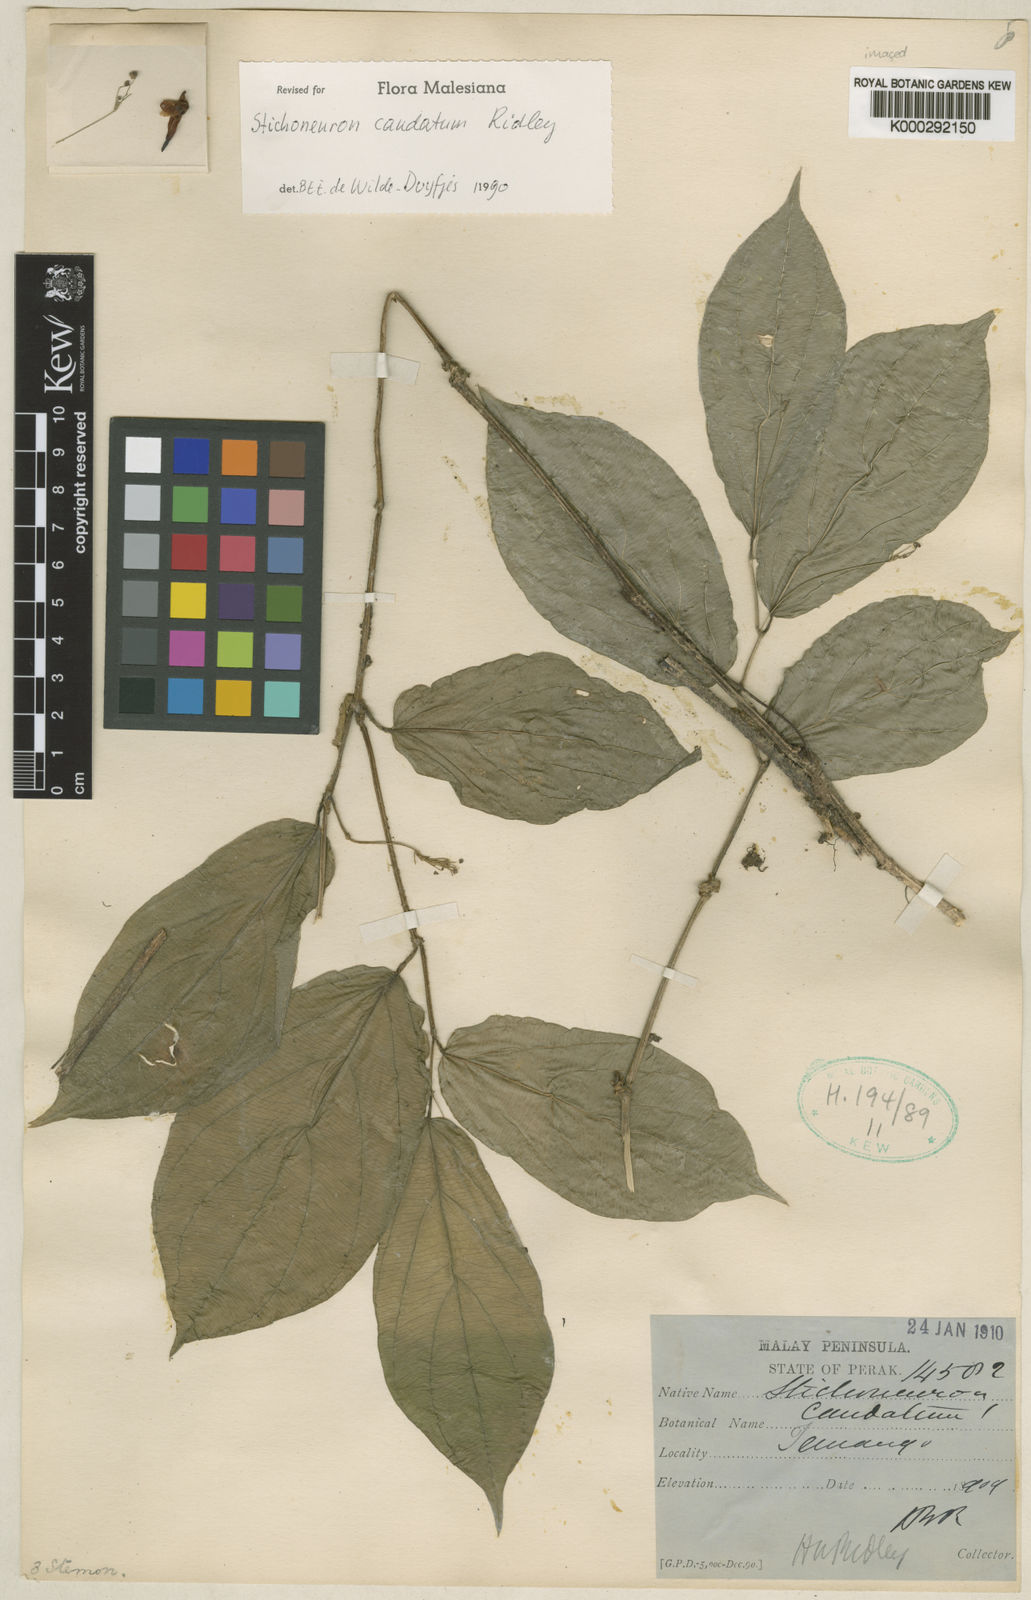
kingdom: Plantae
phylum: Tracheophyta
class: Liliopsida
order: Pandanales
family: Stemonaceae
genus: Stichoneuron
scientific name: Stichoneuron caudatum
